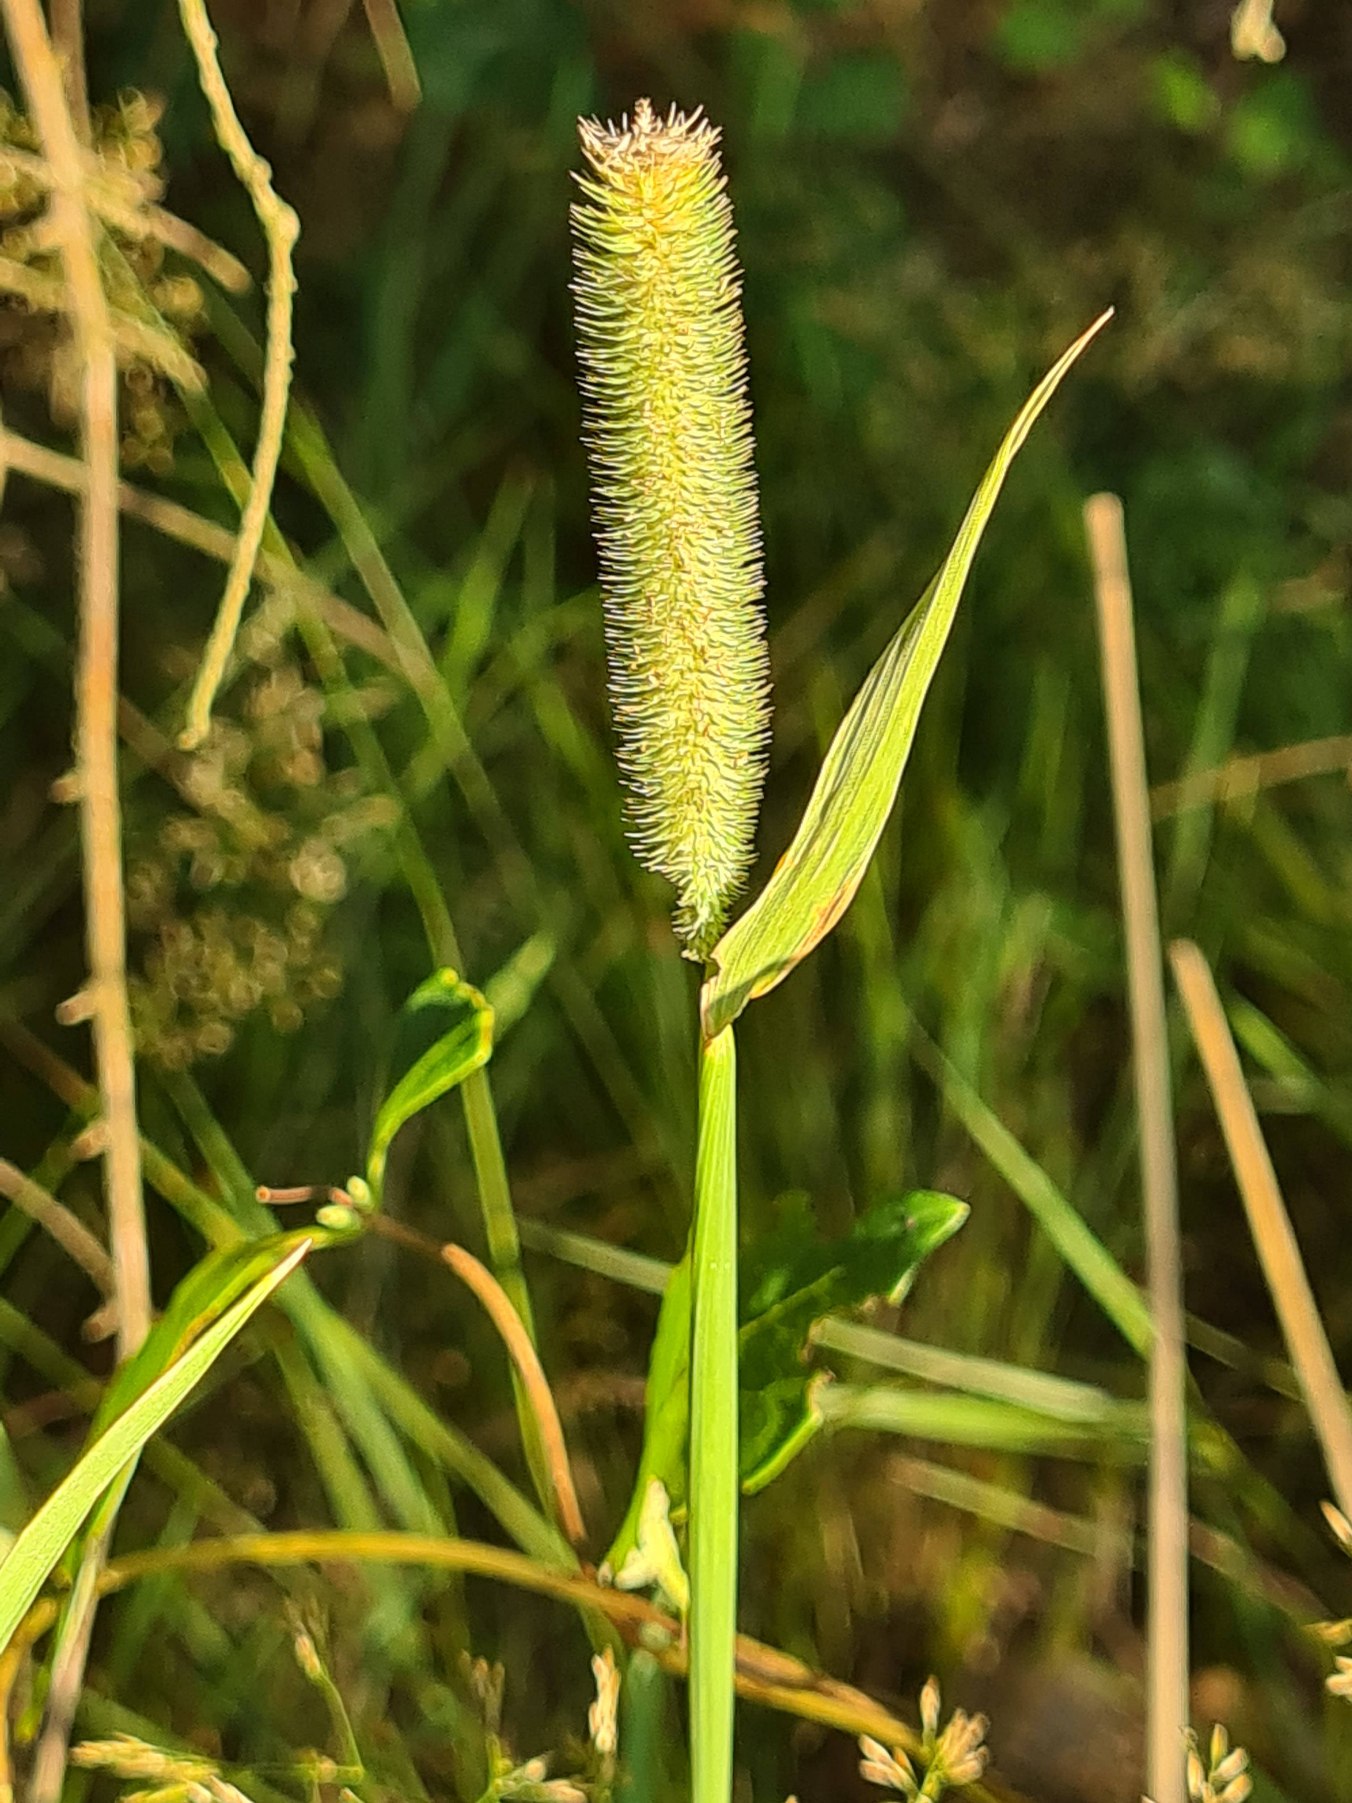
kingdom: Plantae
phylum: Tracheophyta
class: Liliopsida
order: Poales
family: Poaceae
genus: Phleum
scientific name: Phleum pratense
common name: Eng-rottehale
